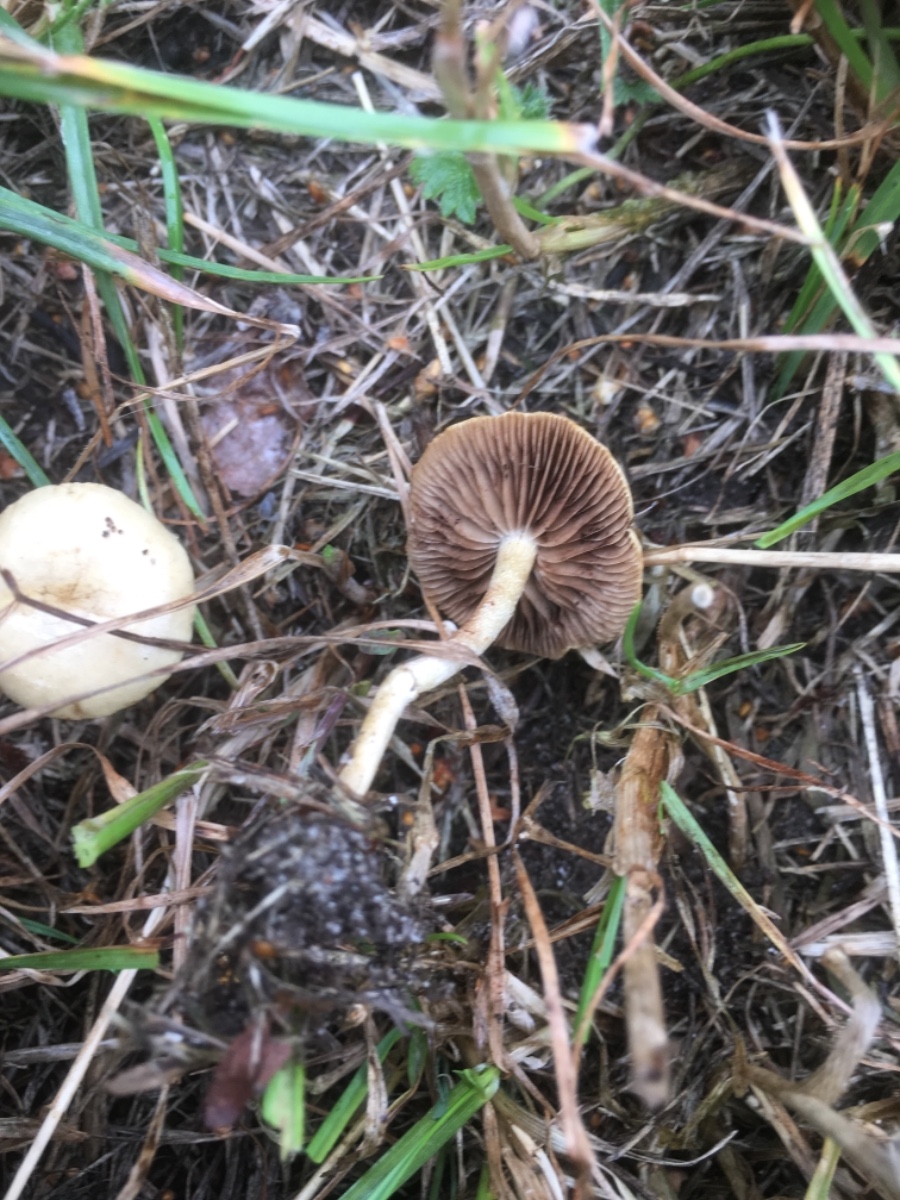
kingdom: Fungi
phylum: Basidiomycota
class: Agaricomycetes
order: Agaricales
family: Strophariaceae
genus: Agrocybe
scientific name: Agrocybe pediades
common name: almindelig agerhat
